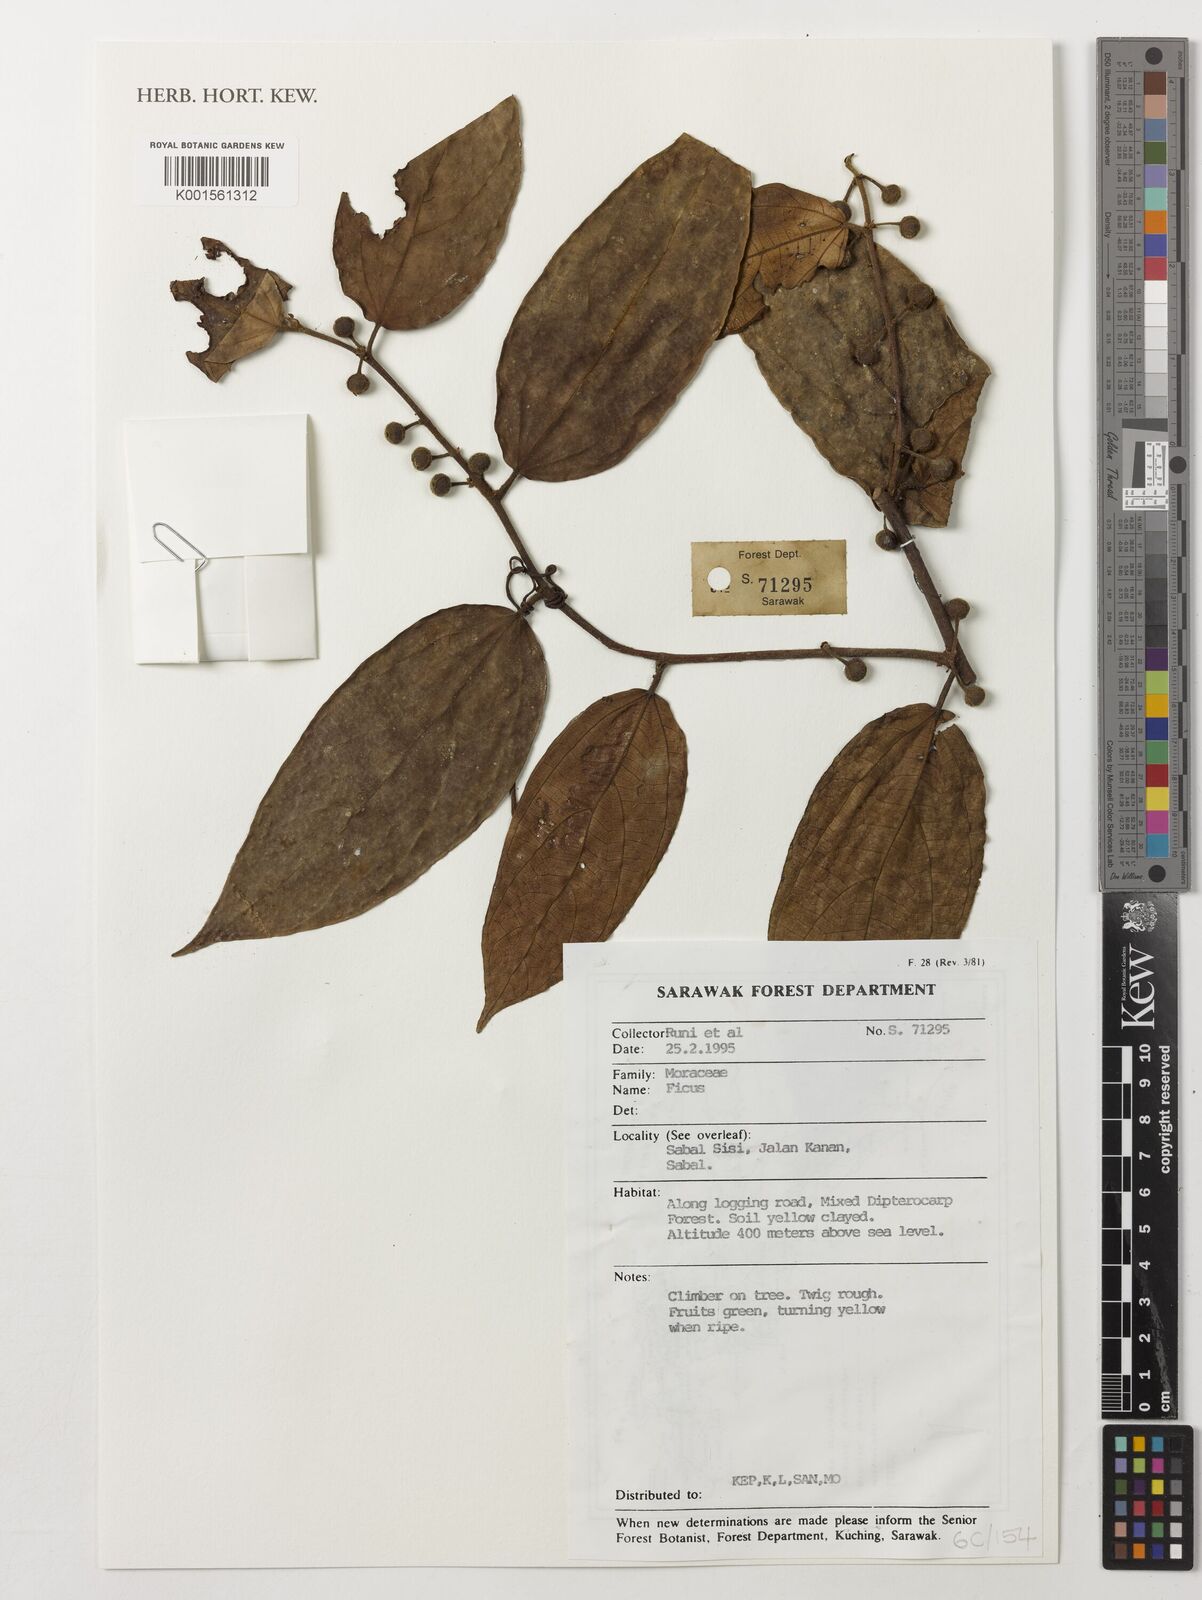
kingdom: Plantae
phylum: Tracheophyta
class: Magnoliopsida
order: Rosales
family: Moraceae
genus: Ficus
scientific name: Ficus
